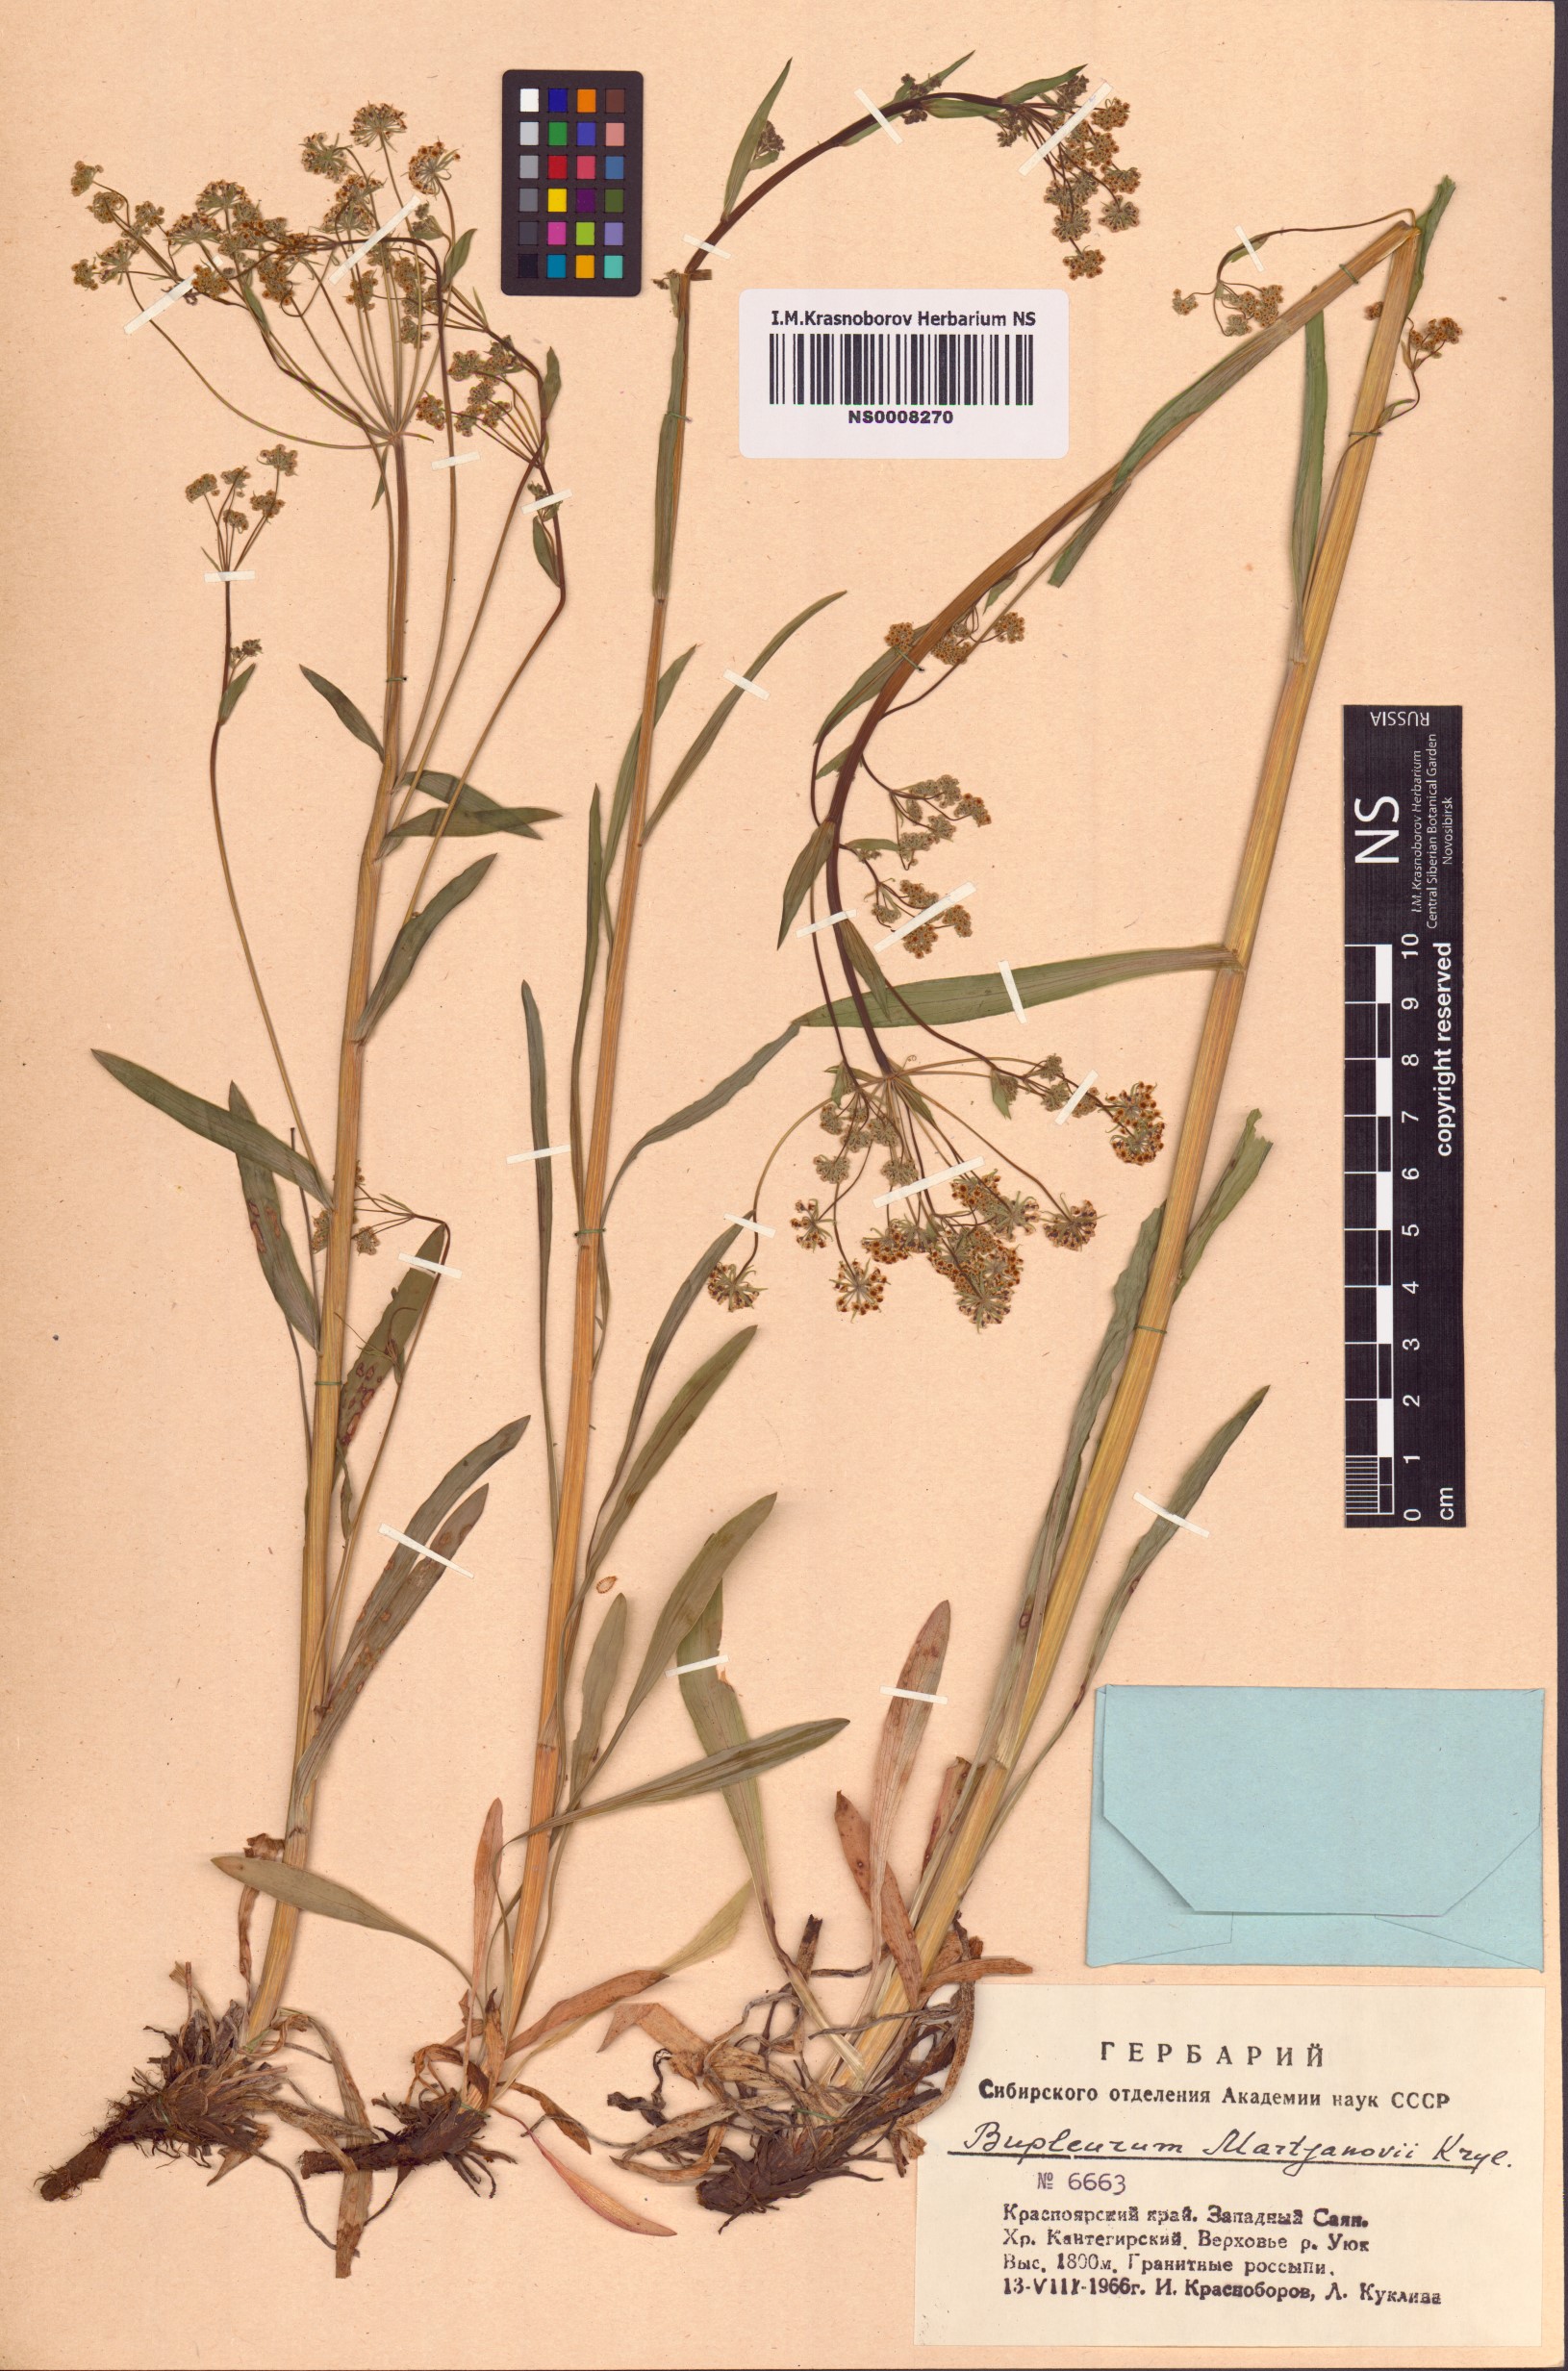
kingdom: Plantae
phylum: Tracheophyta
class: Magnoliopsida
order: Apiales
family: Apiaceae
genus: Bupleurum
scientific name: Bupleurum martjanovii
